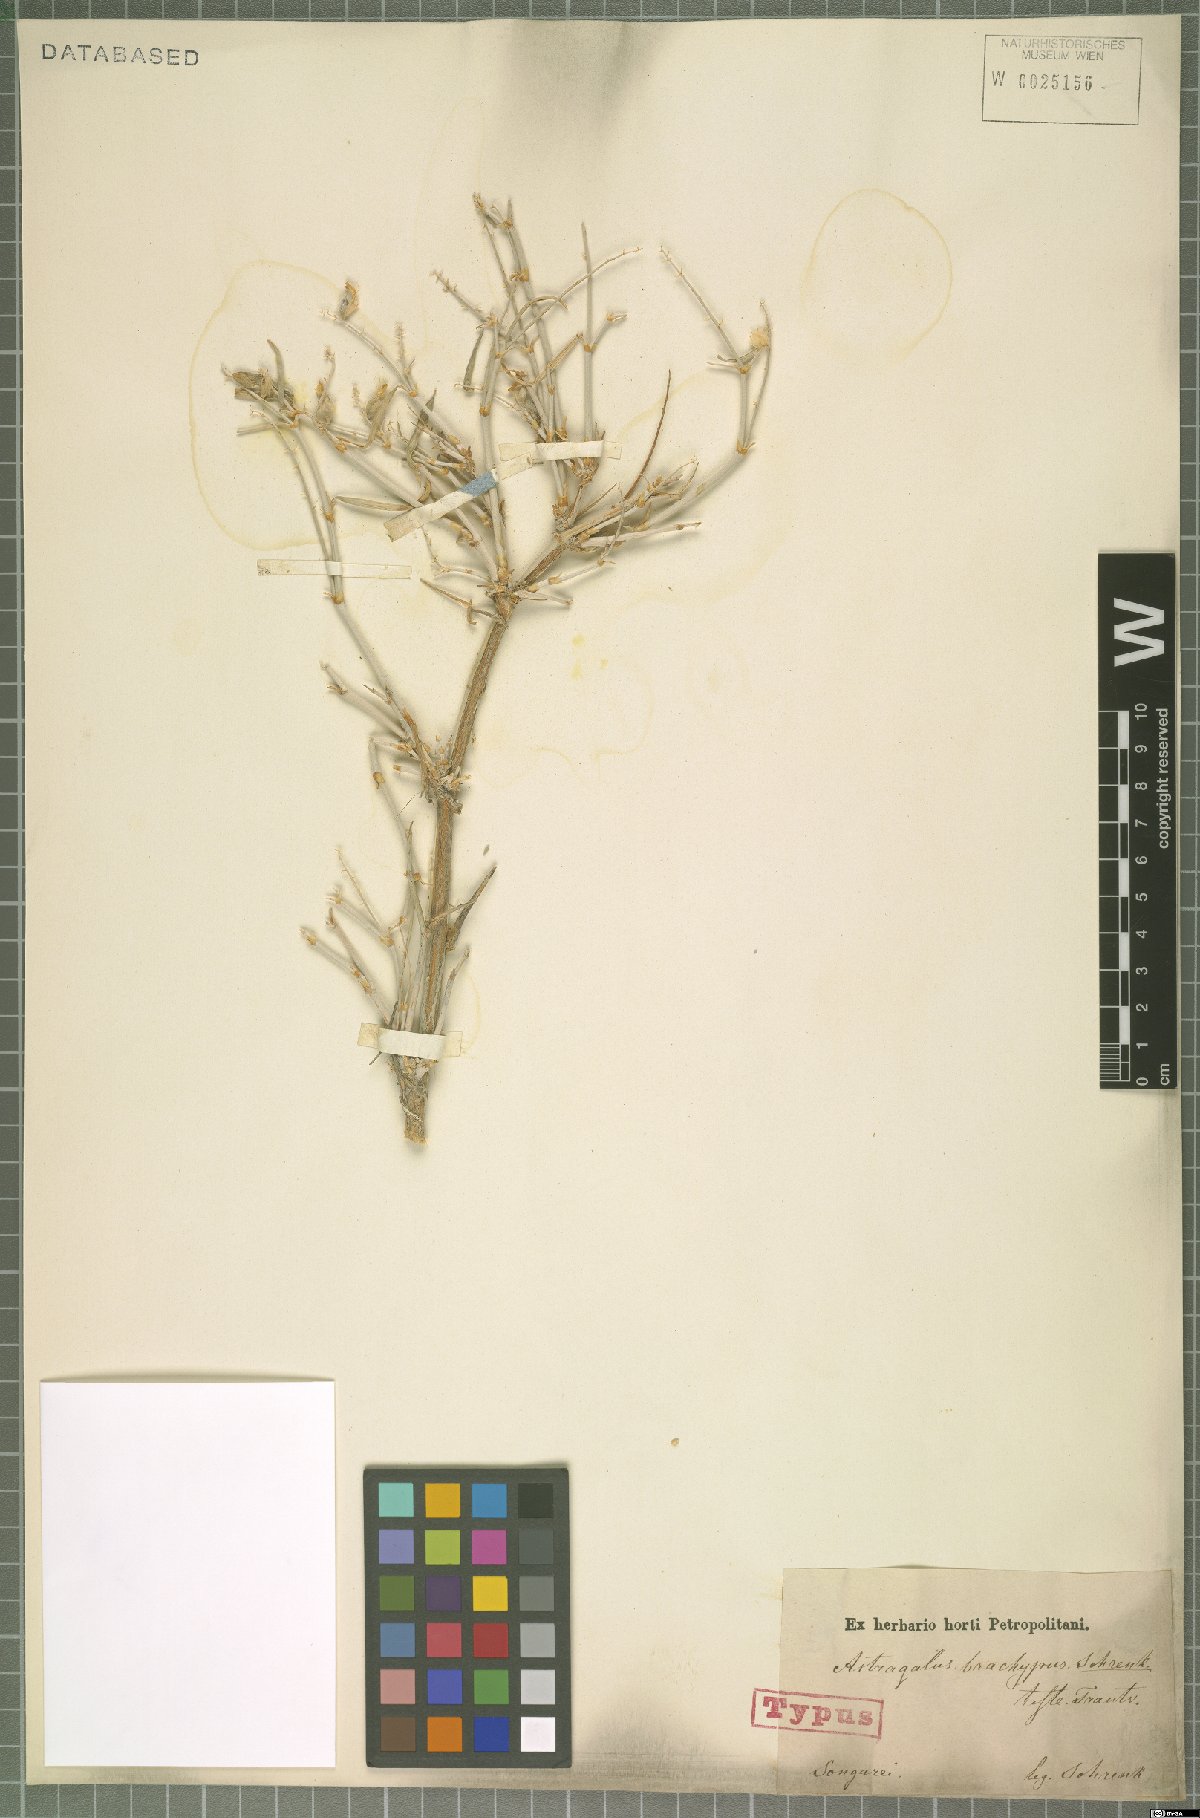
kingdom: Plantae
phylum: Tracheophyta
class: Magnoliopsida
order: Fabales
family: Fabaceae
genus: Astragalus
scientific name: Astragalus brachypus
